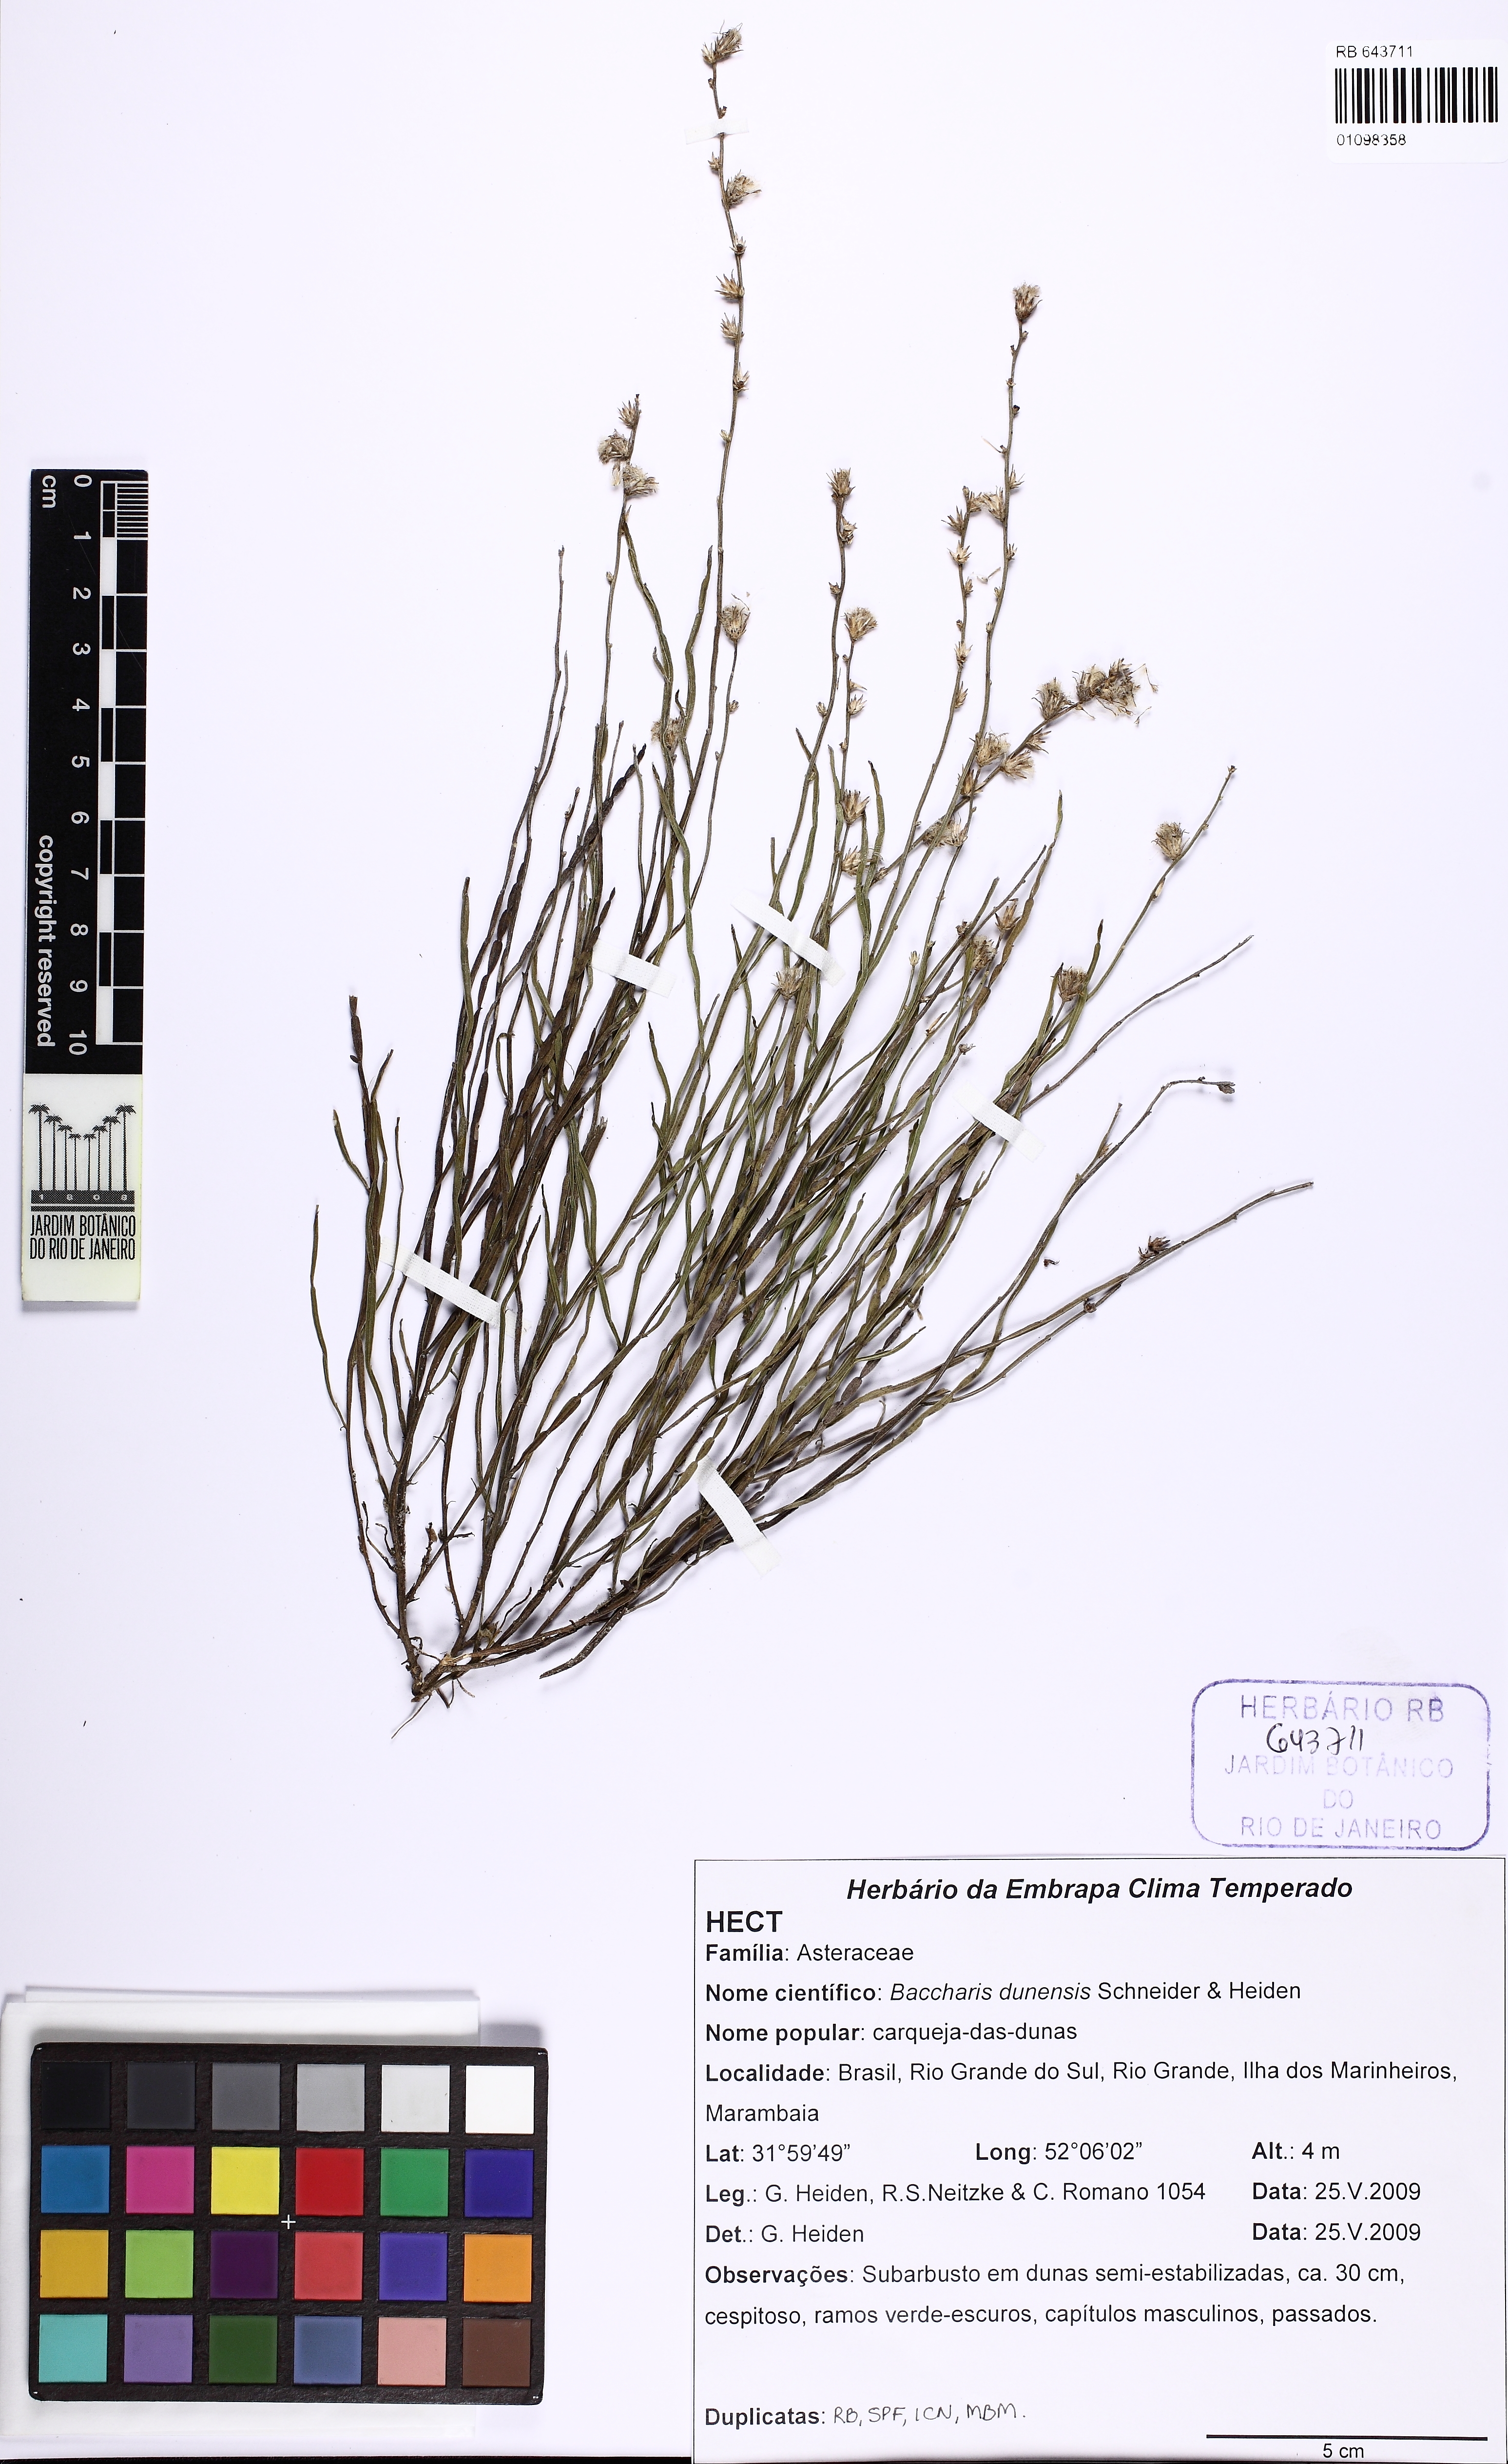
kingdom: Plantae
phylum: Tracheophyta
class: Magnoliopsida
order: Asterales
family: Asteraceae
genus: Baccharis
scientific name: Baccharis dunensis
